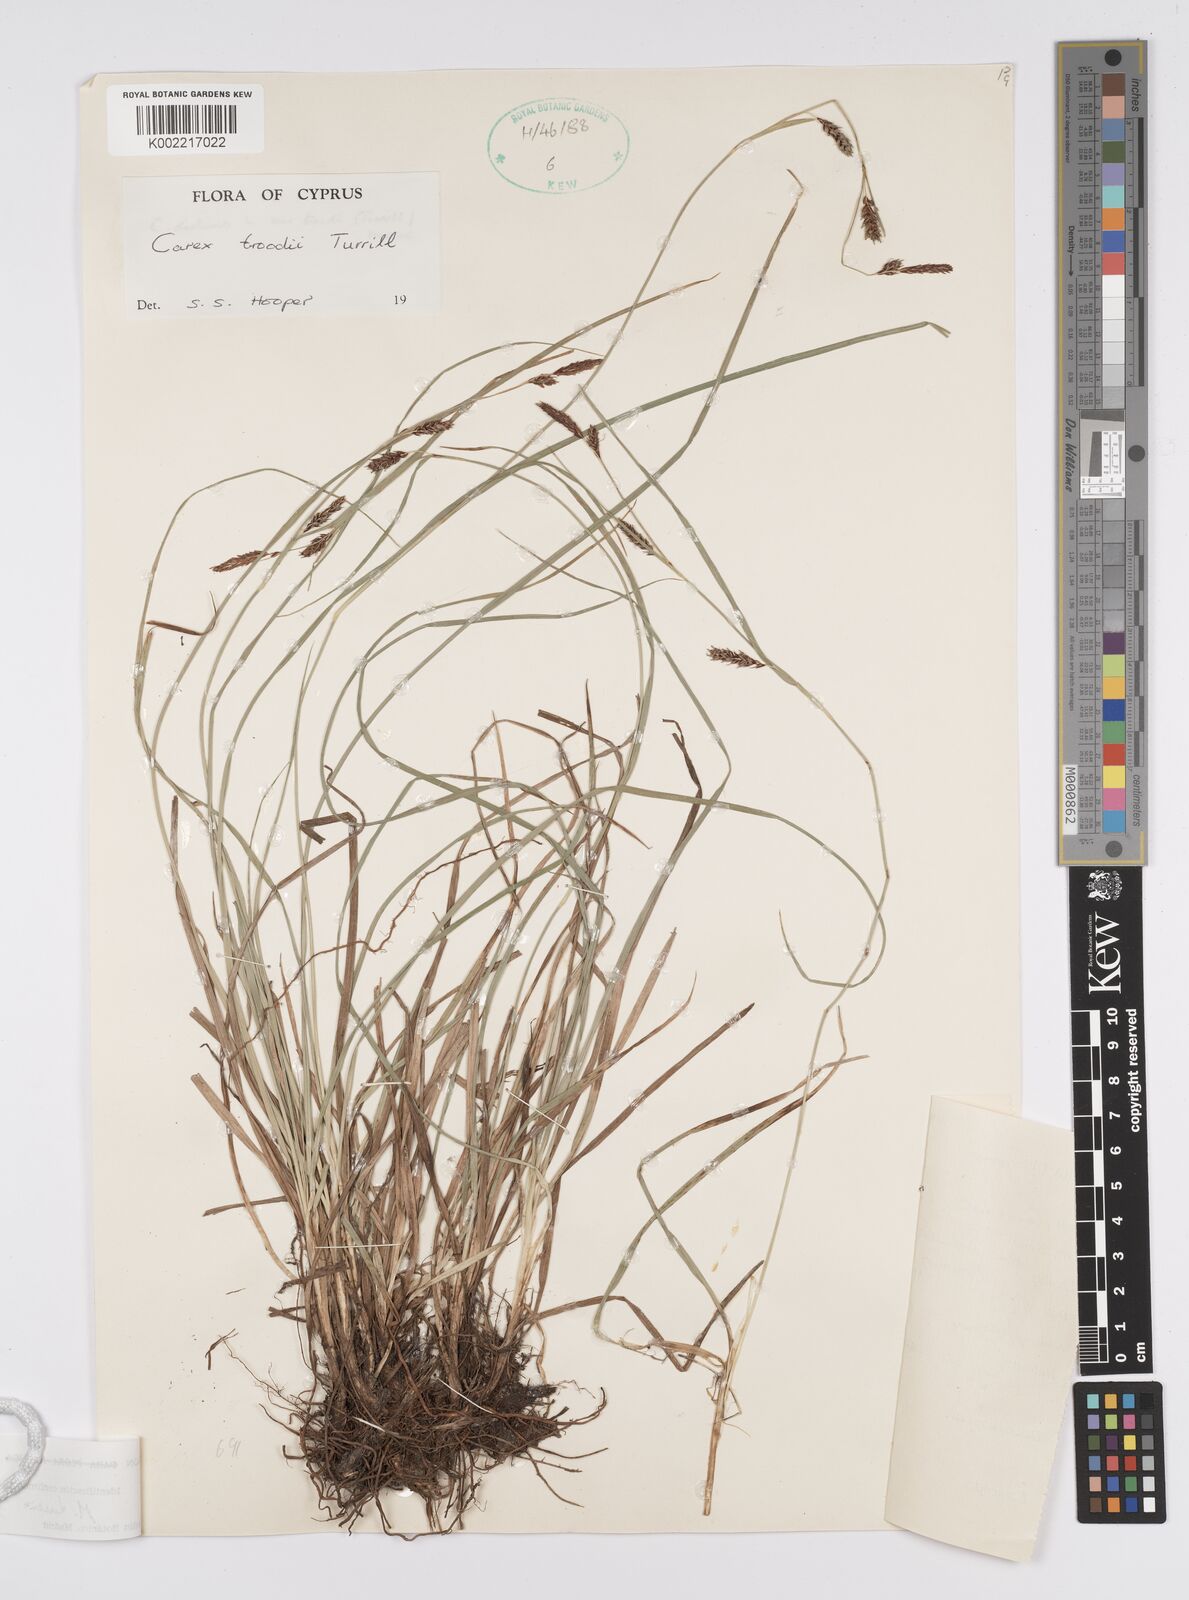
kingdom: Plantae
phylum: Tracheophyta
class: Liliopsida
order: Poales
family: Cyperaceae
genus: Carex
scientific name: Carex troodi
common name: Troodos mount sedge
